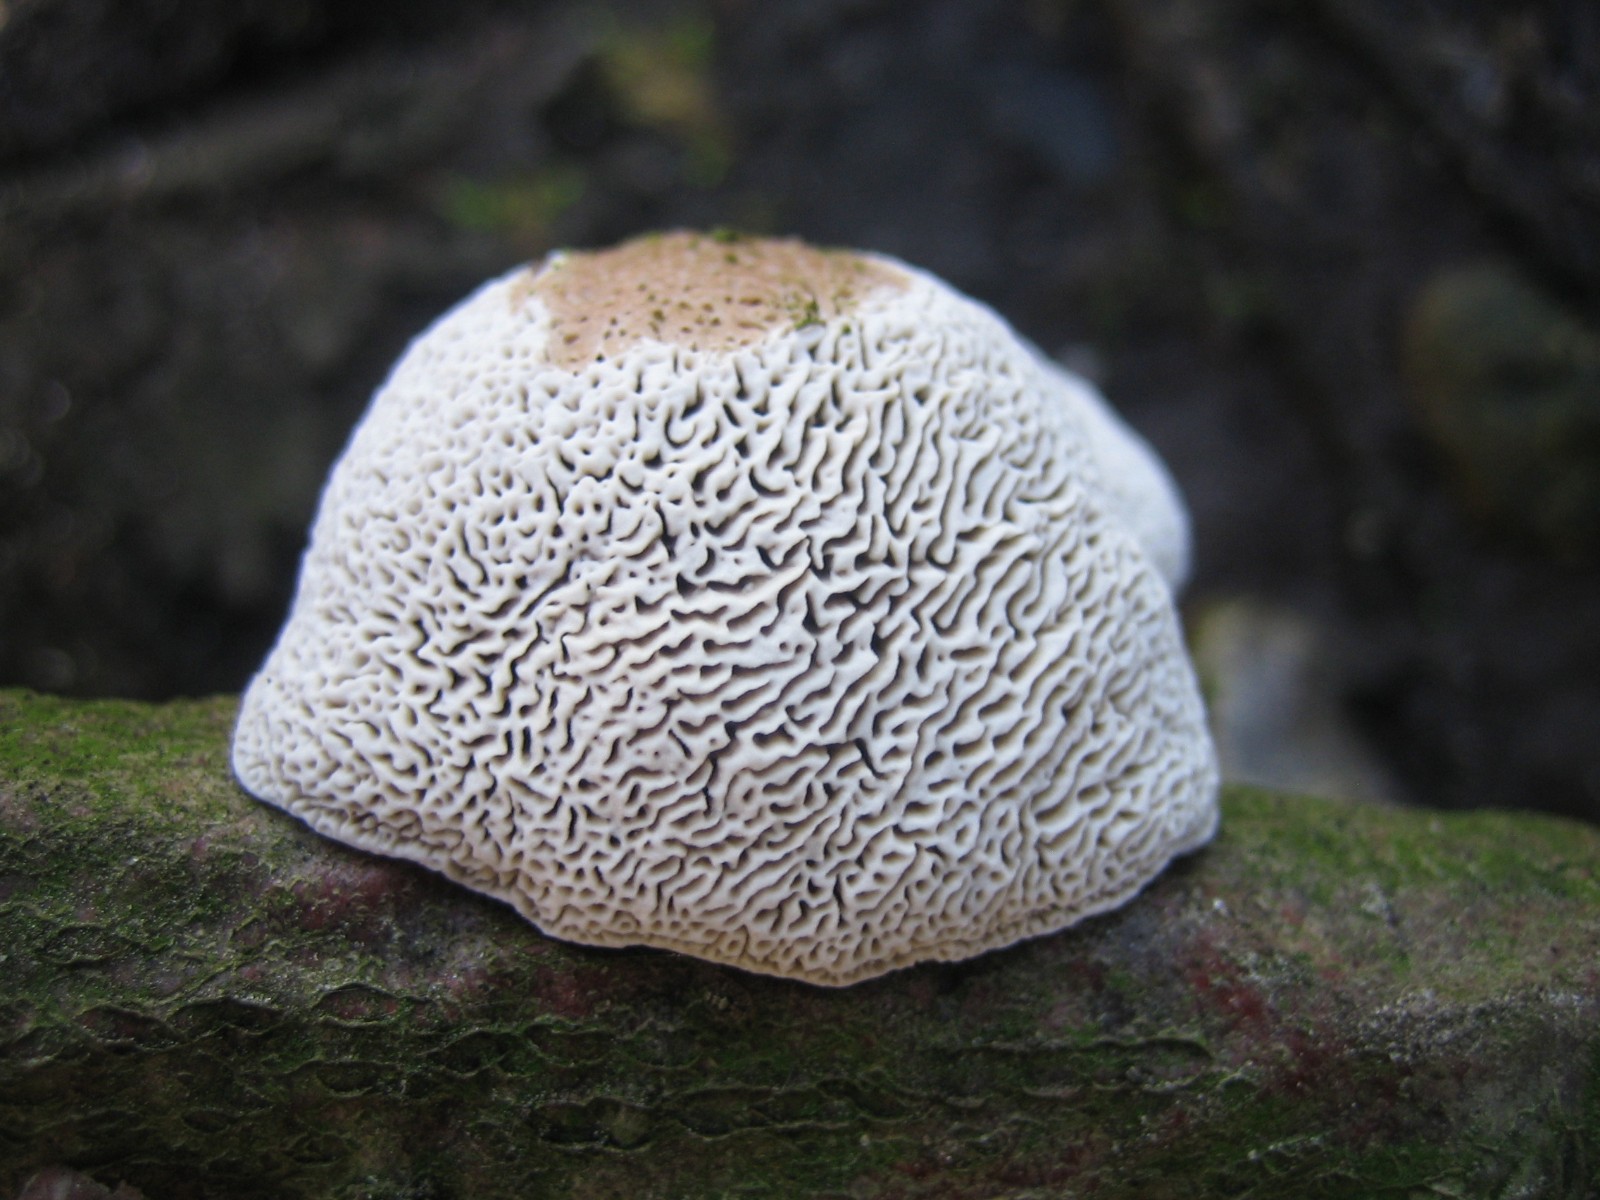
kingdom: Fungi
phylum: Basidiomycota
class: Agaricomycetes
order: Polyporales
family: Polyporaceae
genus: Daedaleopsis
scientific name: Daedaleopsis confragosa
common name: rødmende læderporesvamp
